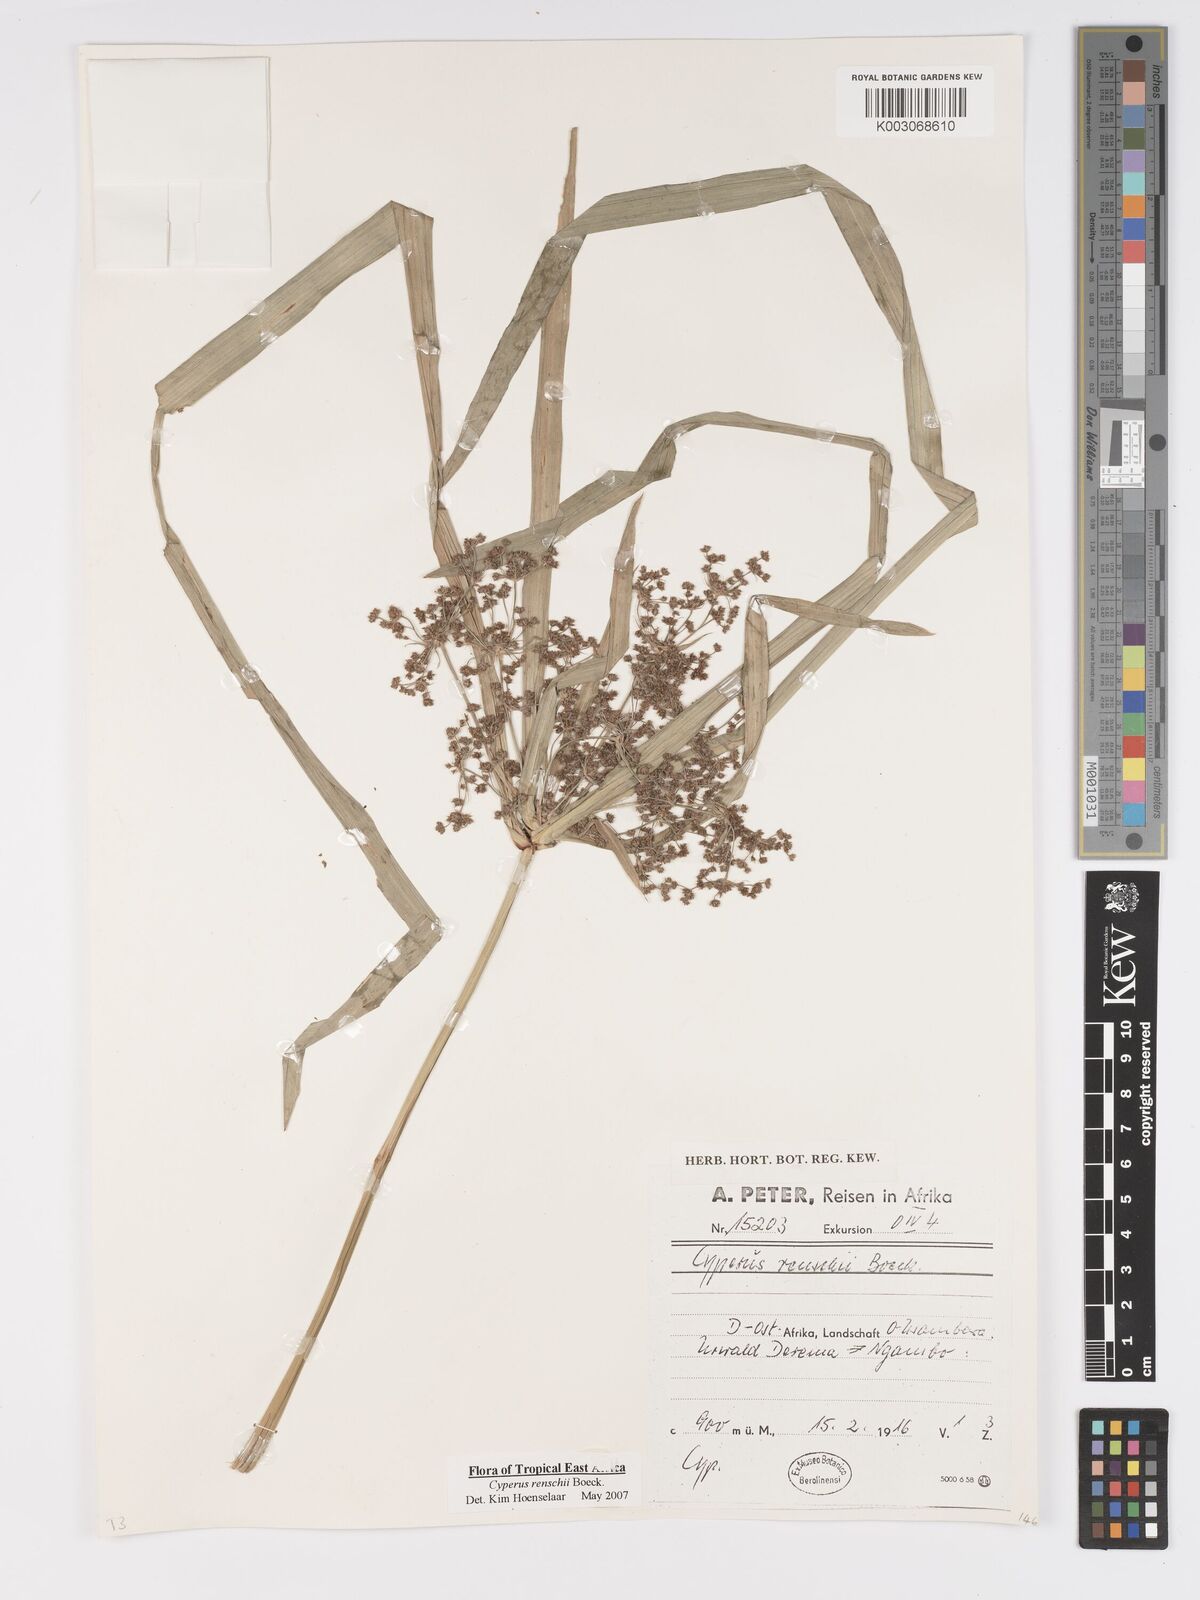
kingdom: Plantae
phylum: Tracheophyta
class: Liliopsida
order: Poales
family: Cyperaceae
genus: Cyperus
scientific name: Cyperus renschii
